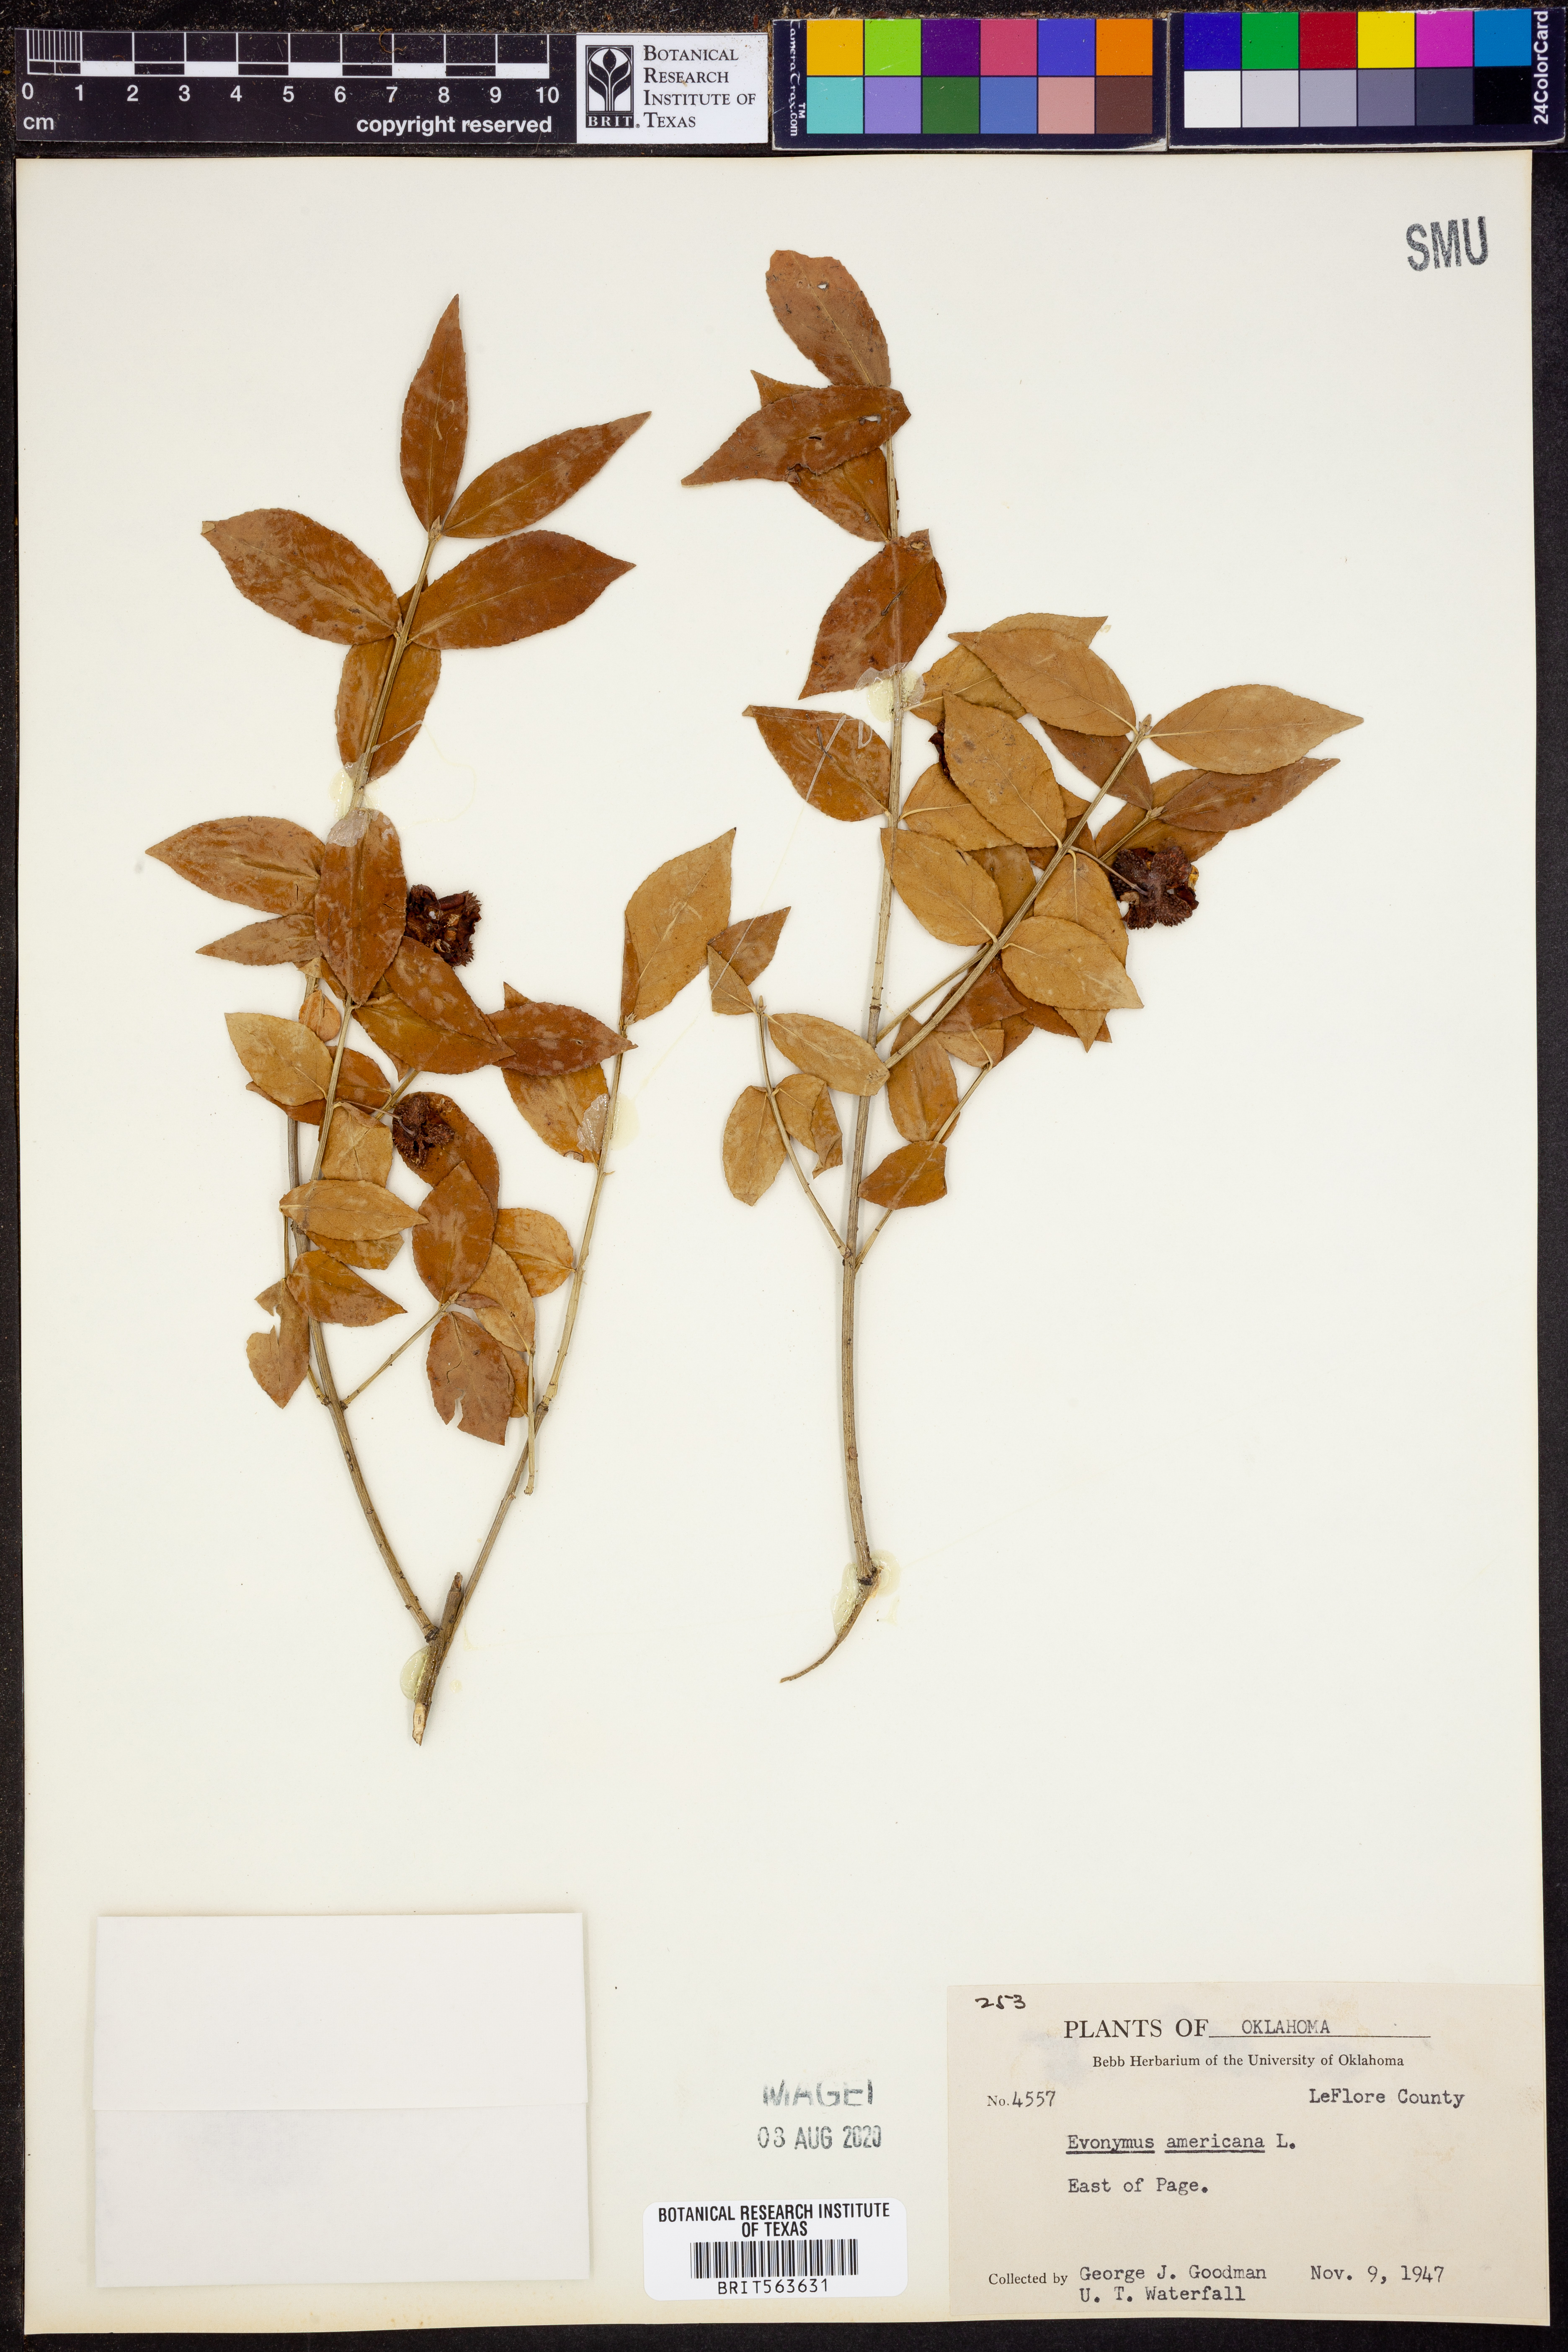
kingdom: Plantae
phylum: Tracheophyta
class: Magnoliopsida
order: Celastrales
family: Celastraceae
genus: Euonymus
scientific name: Euonymus americanus
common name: Bursting-heart
